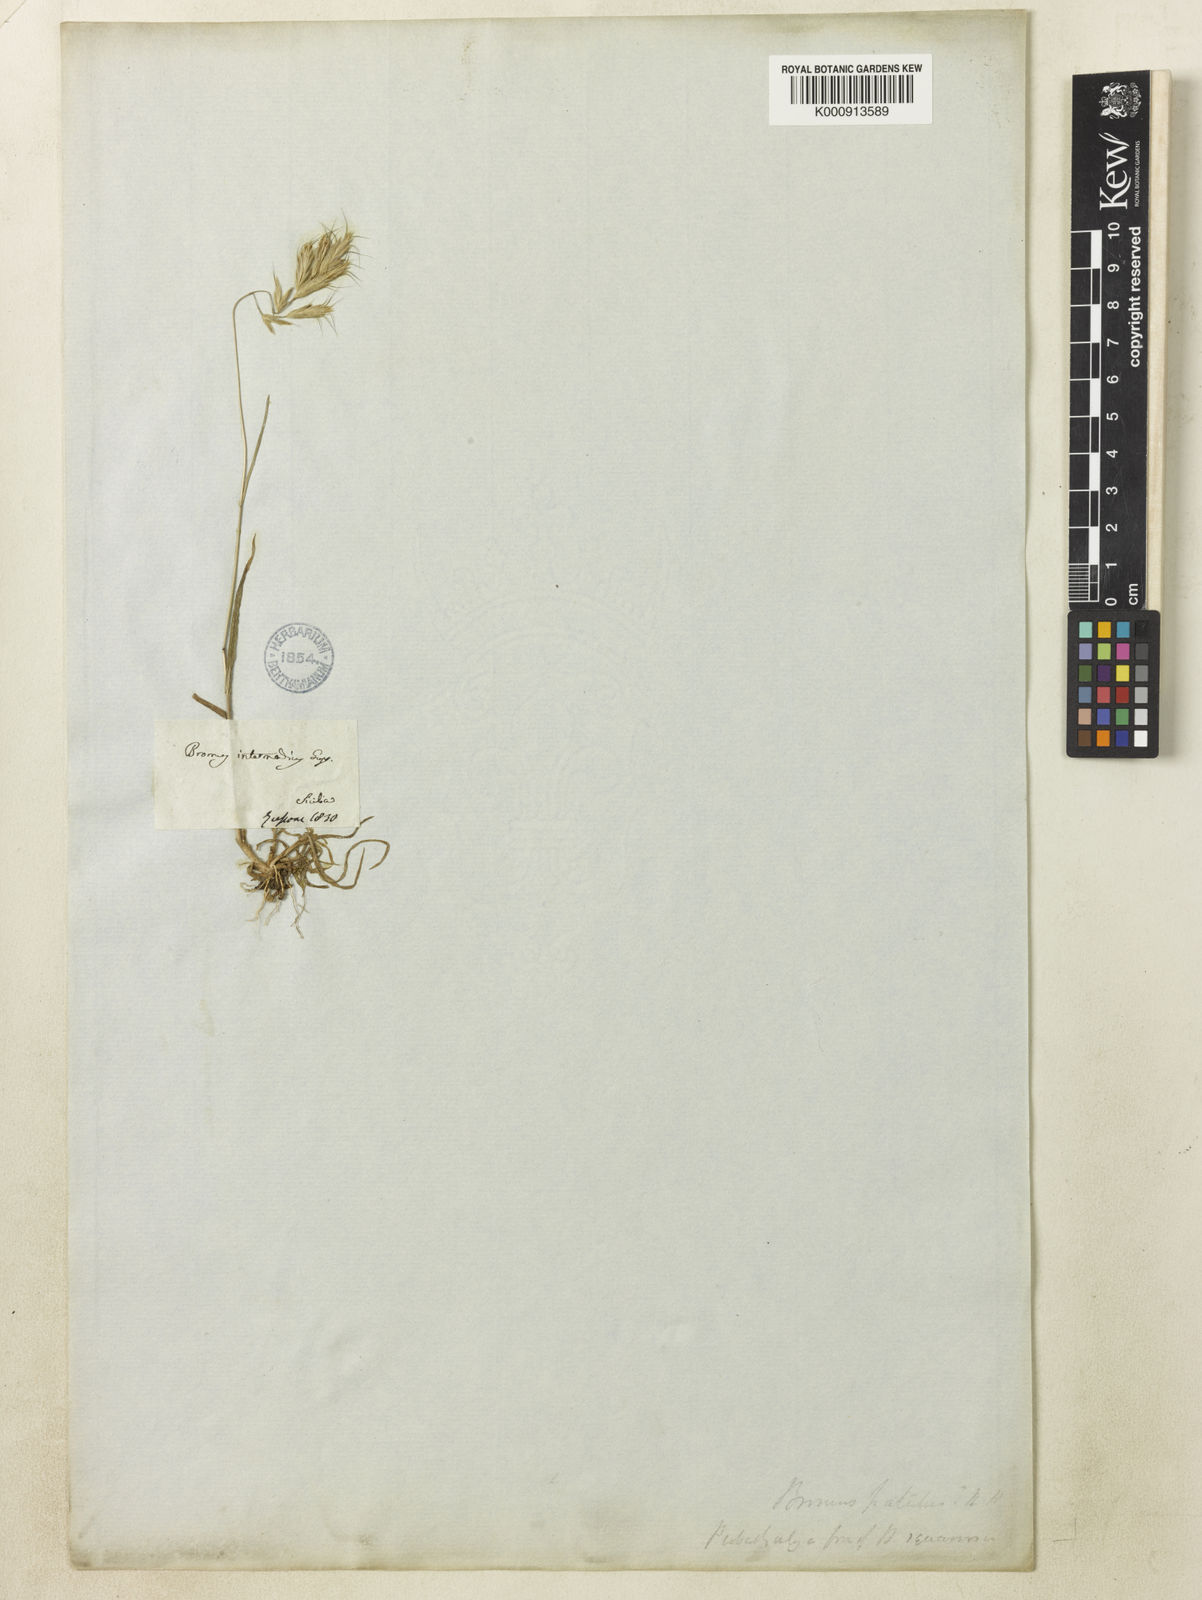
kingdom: Plantae
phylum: Tracheophyta
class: Liliopsida
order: Poales
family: Poaceae
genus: Bromus
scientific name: Bromus intermedius
